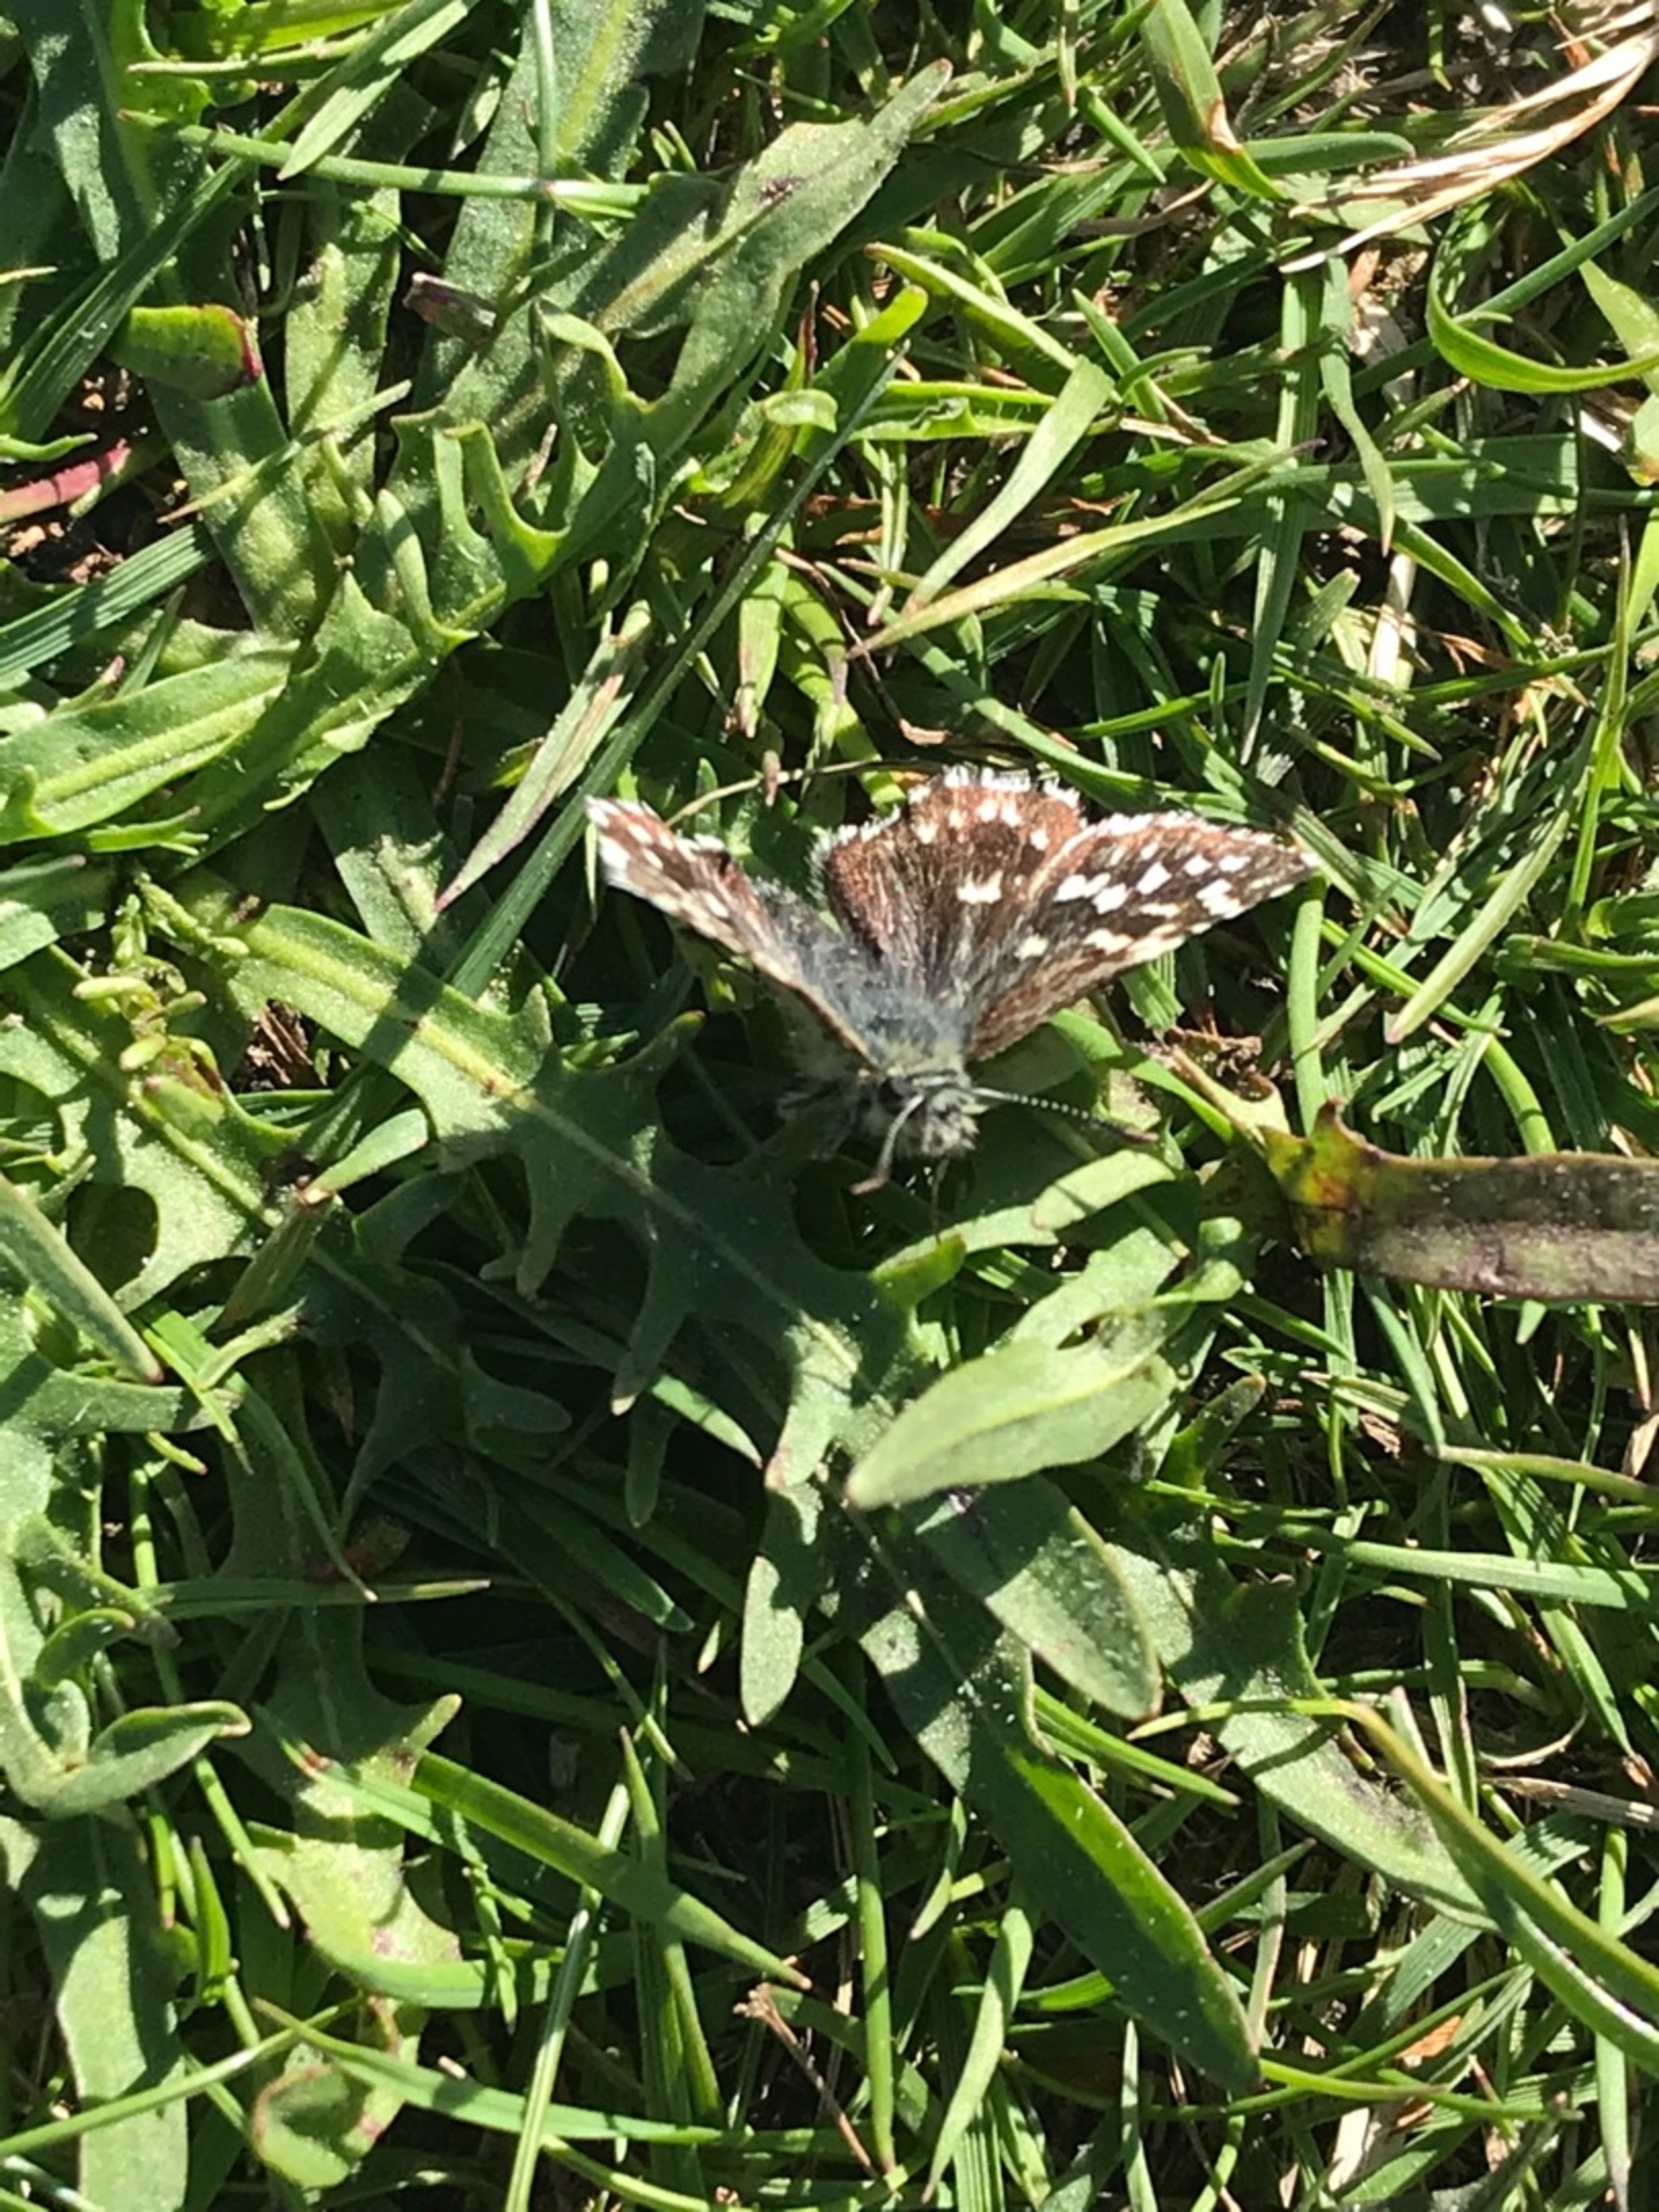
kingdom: Animalia
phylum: Arthropoda
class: Insecta
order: Lepidoptera
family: Hesperiidae
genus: Pyrgus
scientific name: Pyrgus malvae
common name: Spættet bredpande
